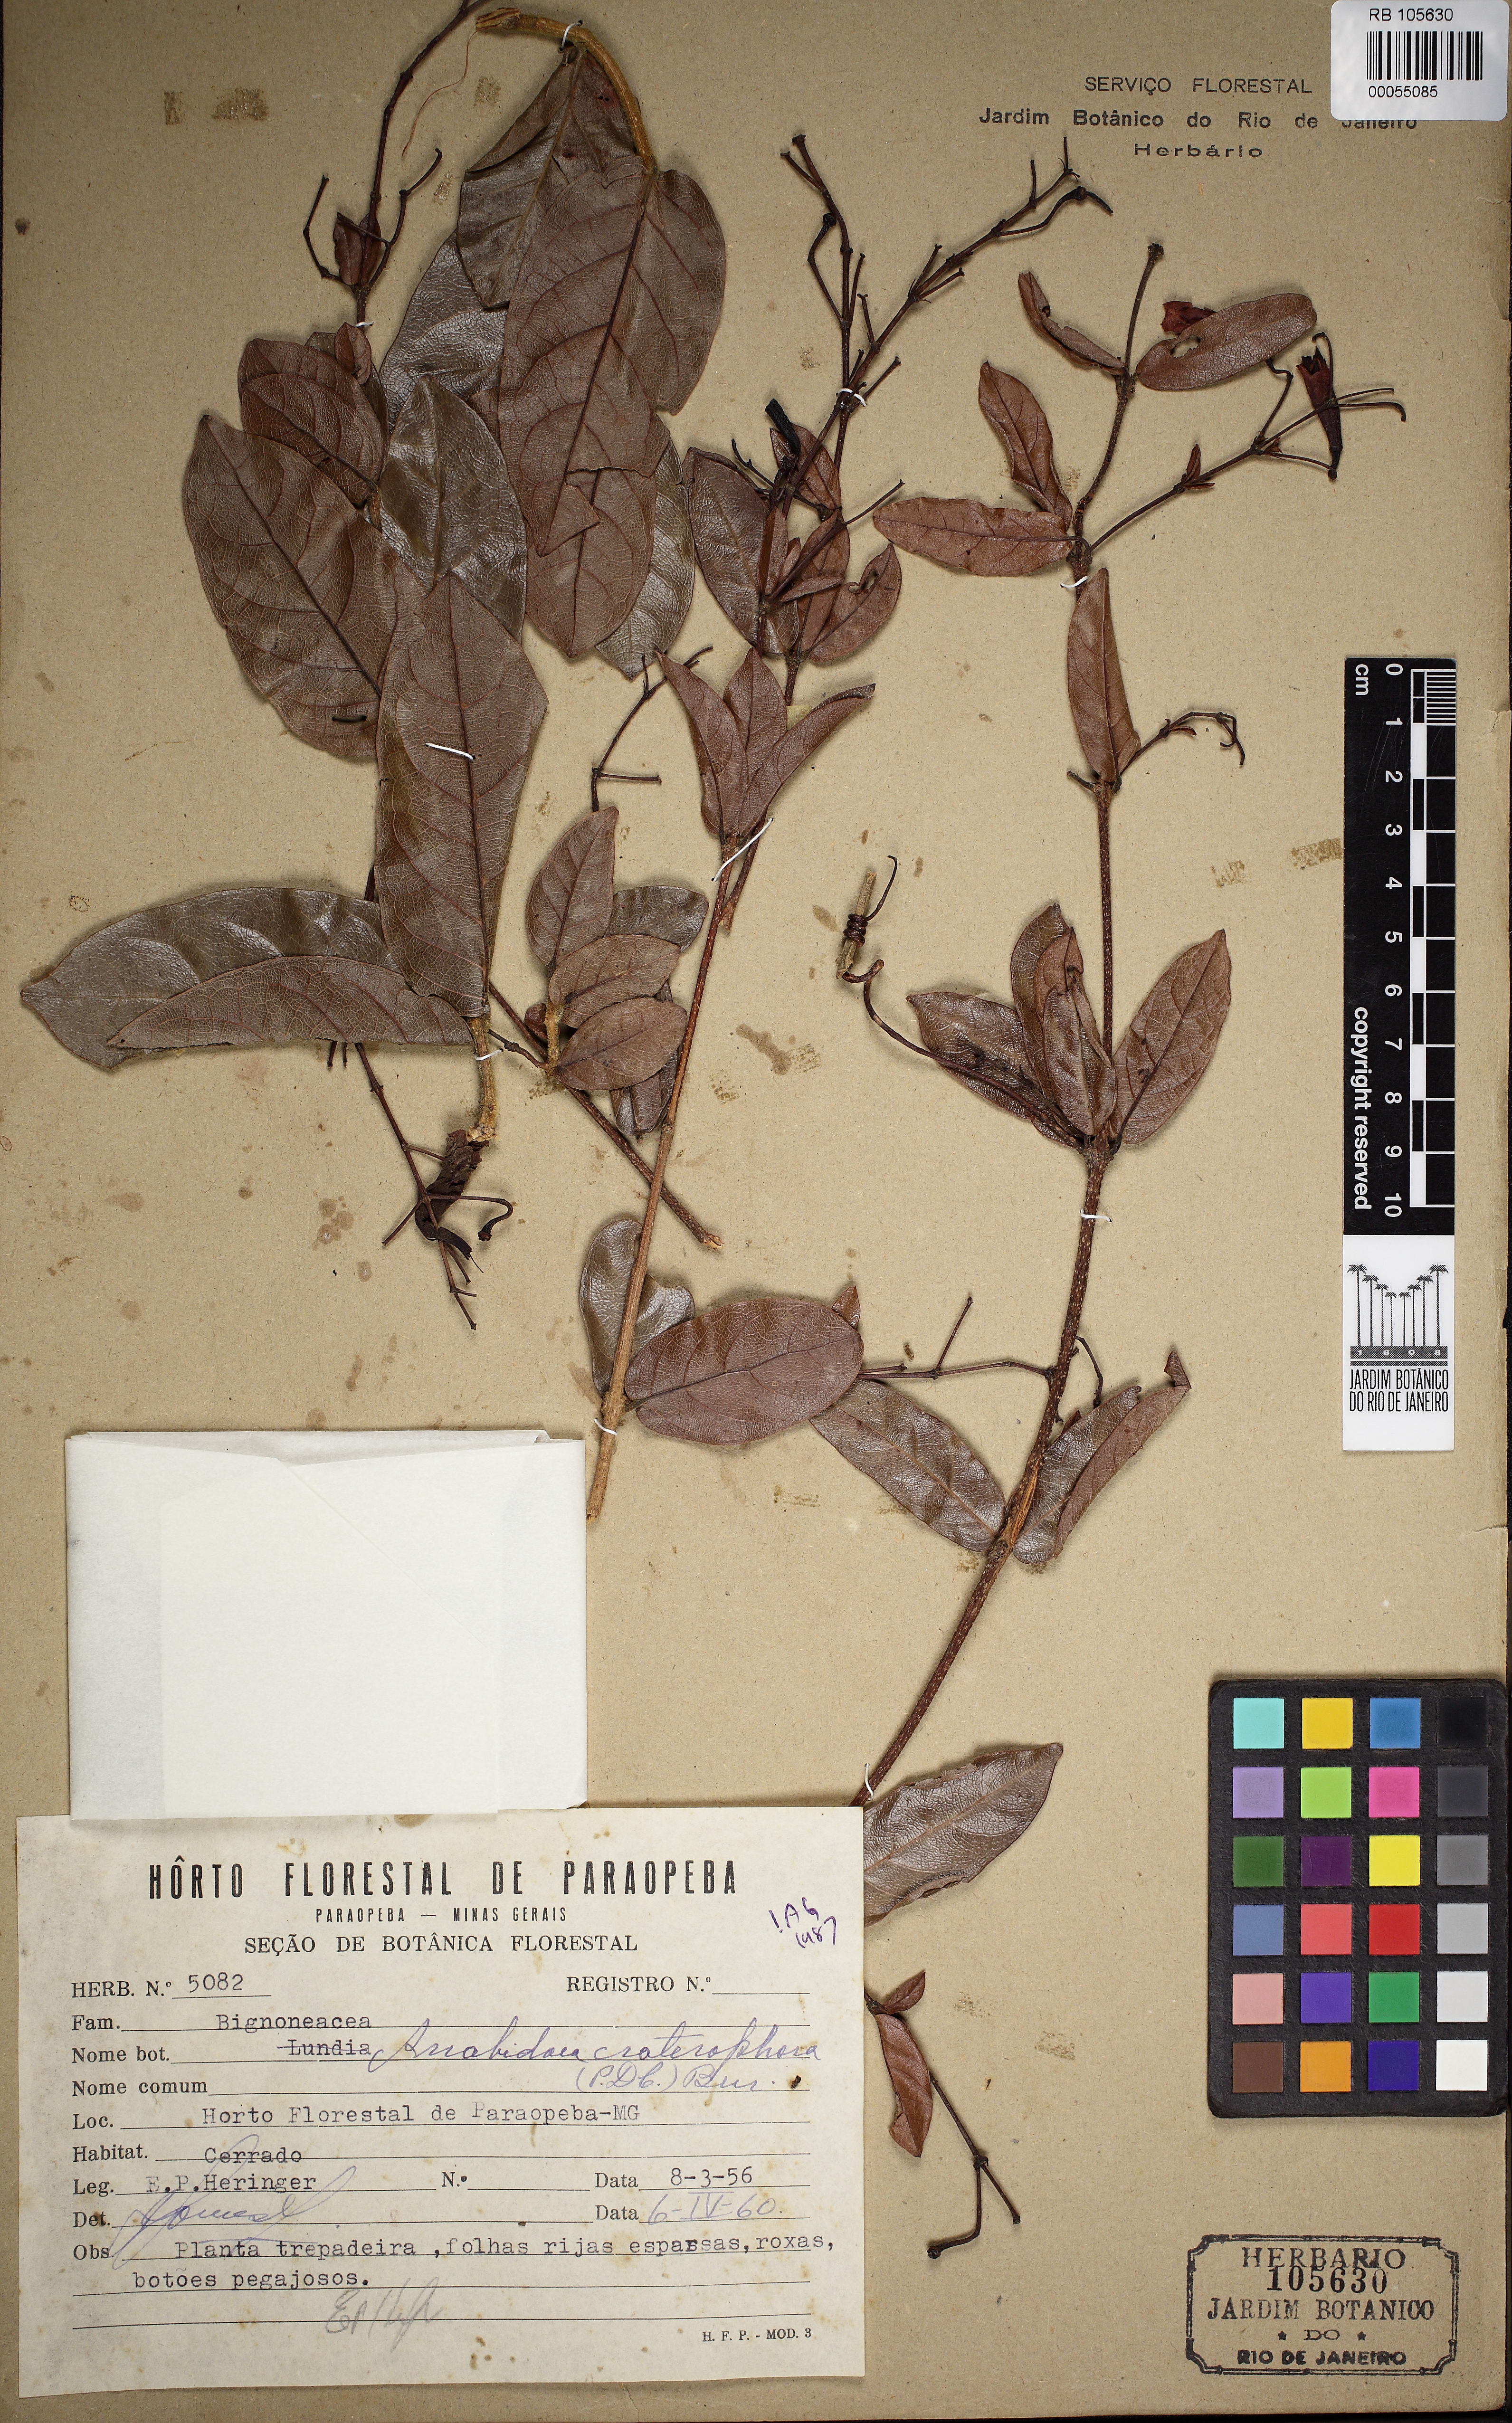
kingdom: Plantae
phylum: Tracheophyta
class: Magnoliopsida
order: Lamiales
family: Bignoniaceae
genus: Fridericia
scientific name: Fridericia craterophora
